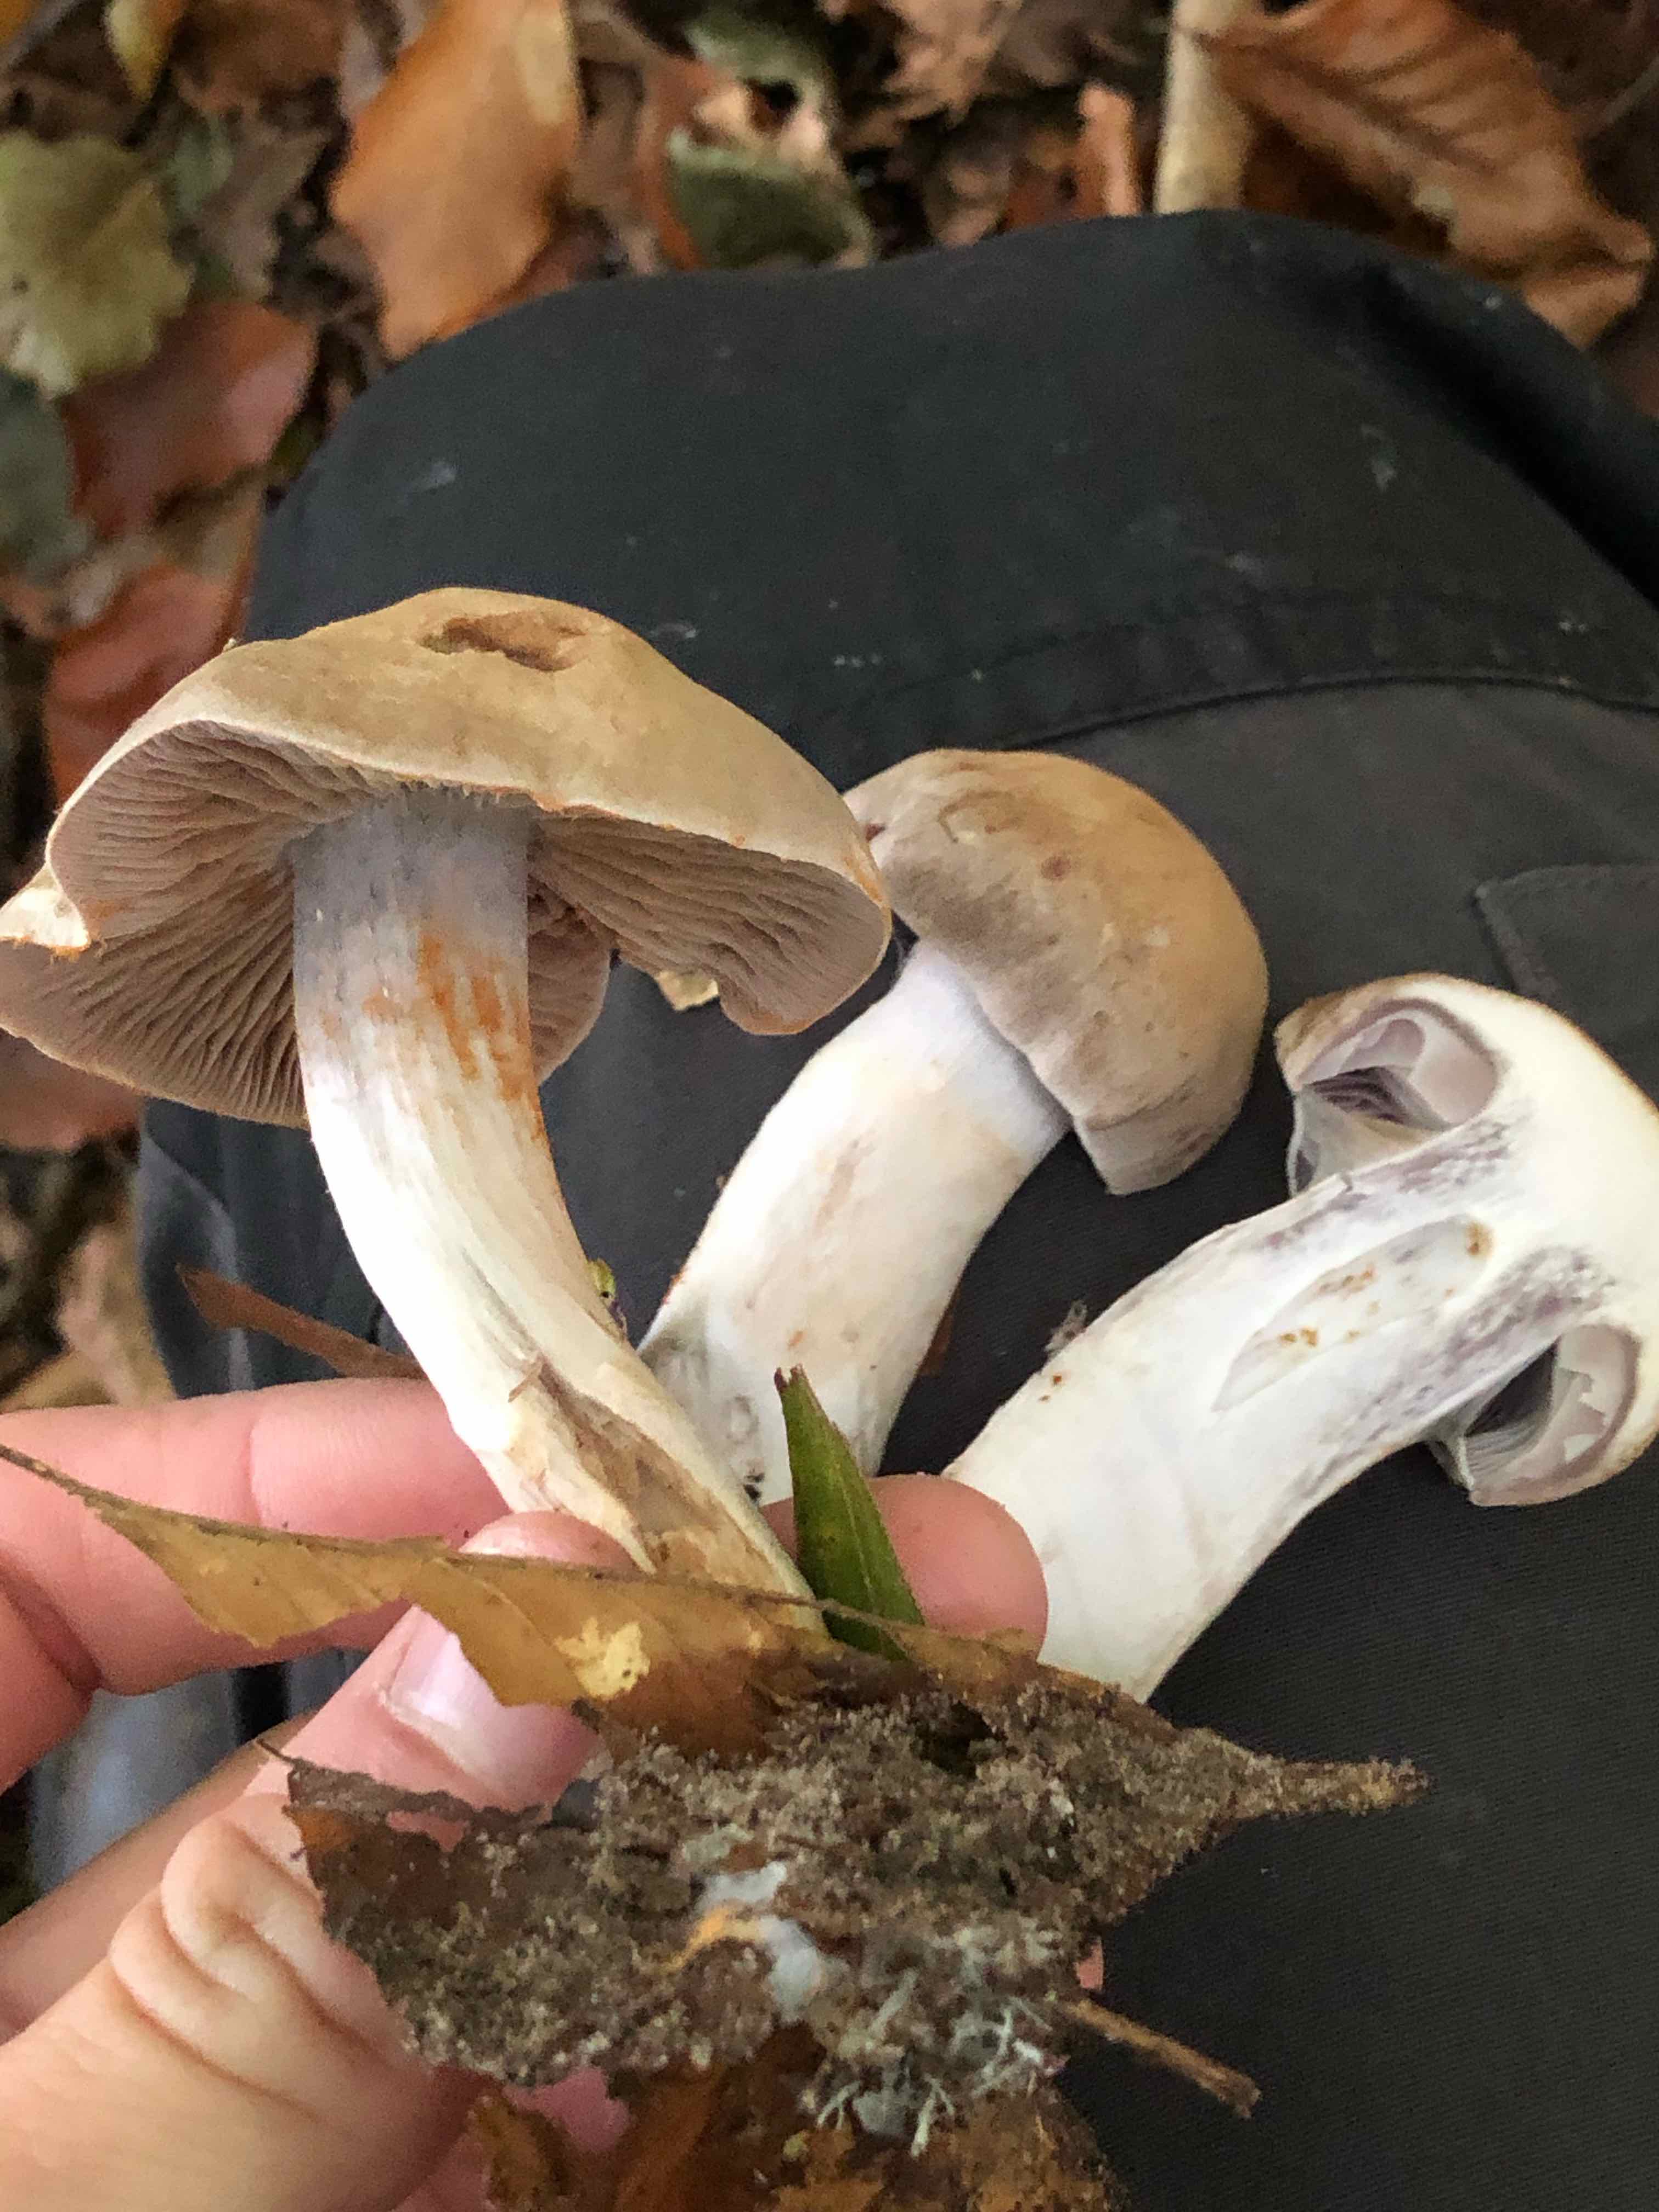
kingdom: Fungi
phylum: Basidiomycota
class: Agaricomycetes
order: Agaricales
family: Cortinariaceae
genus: Cortinarius
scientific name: Cortinarius
